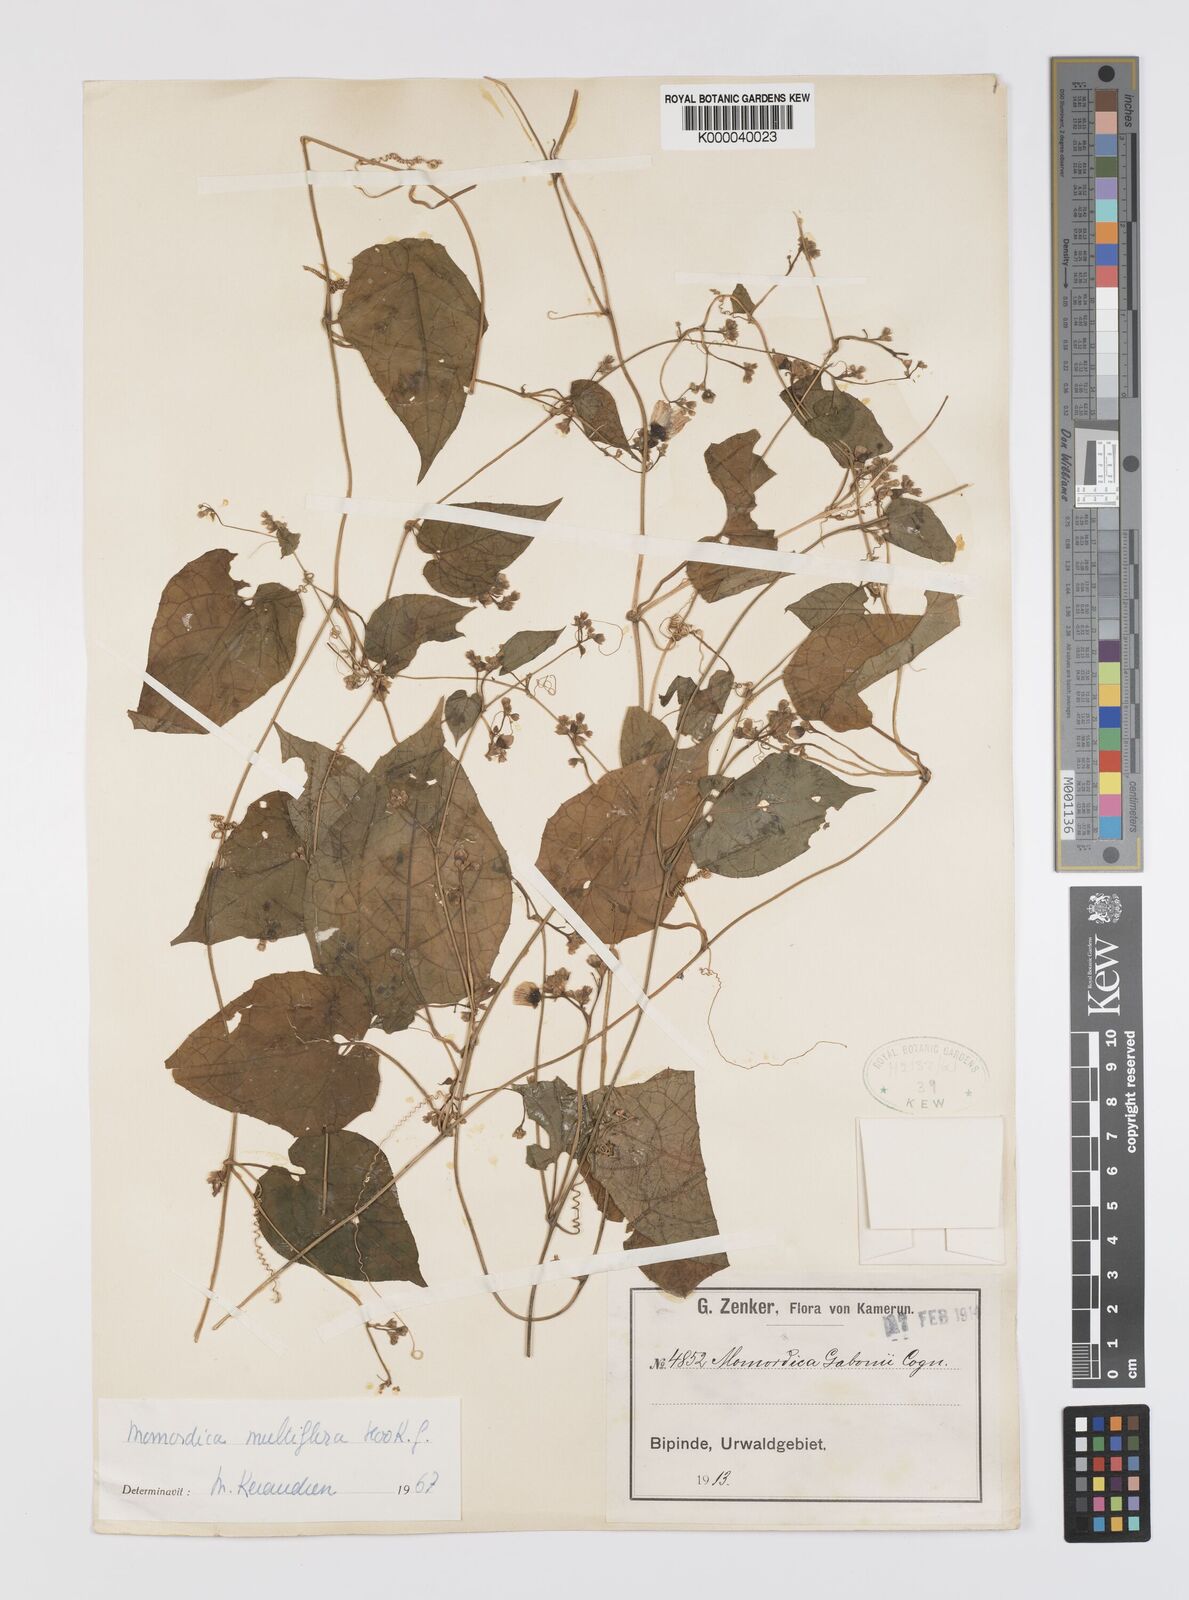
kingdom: Plantae
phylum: Tracheophyta
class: Magnoliopsida
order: Cucurbitales
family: Cucurbitaceae
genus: Momordica
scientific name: Momordica multiflora
